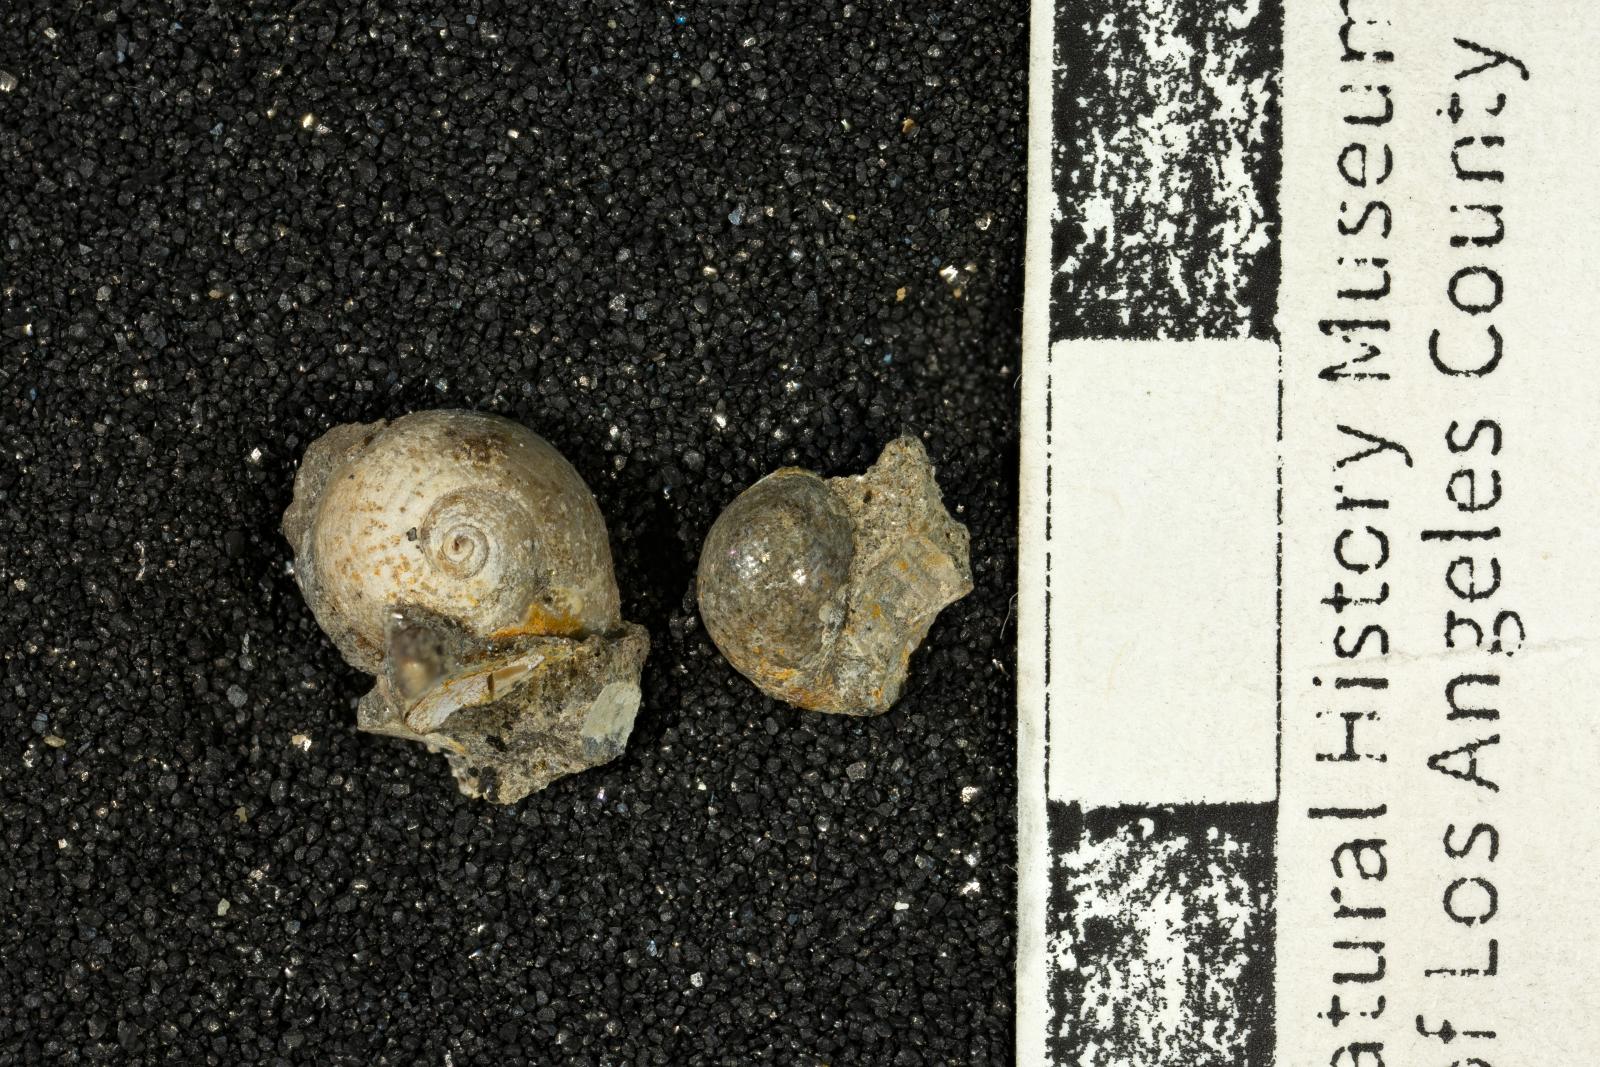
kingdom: Animalia
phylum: Mollusca
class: Gastropoda
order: Cephalaspidea
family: Ringiculidae
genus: Biplica
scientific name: Biplica isoplicata
